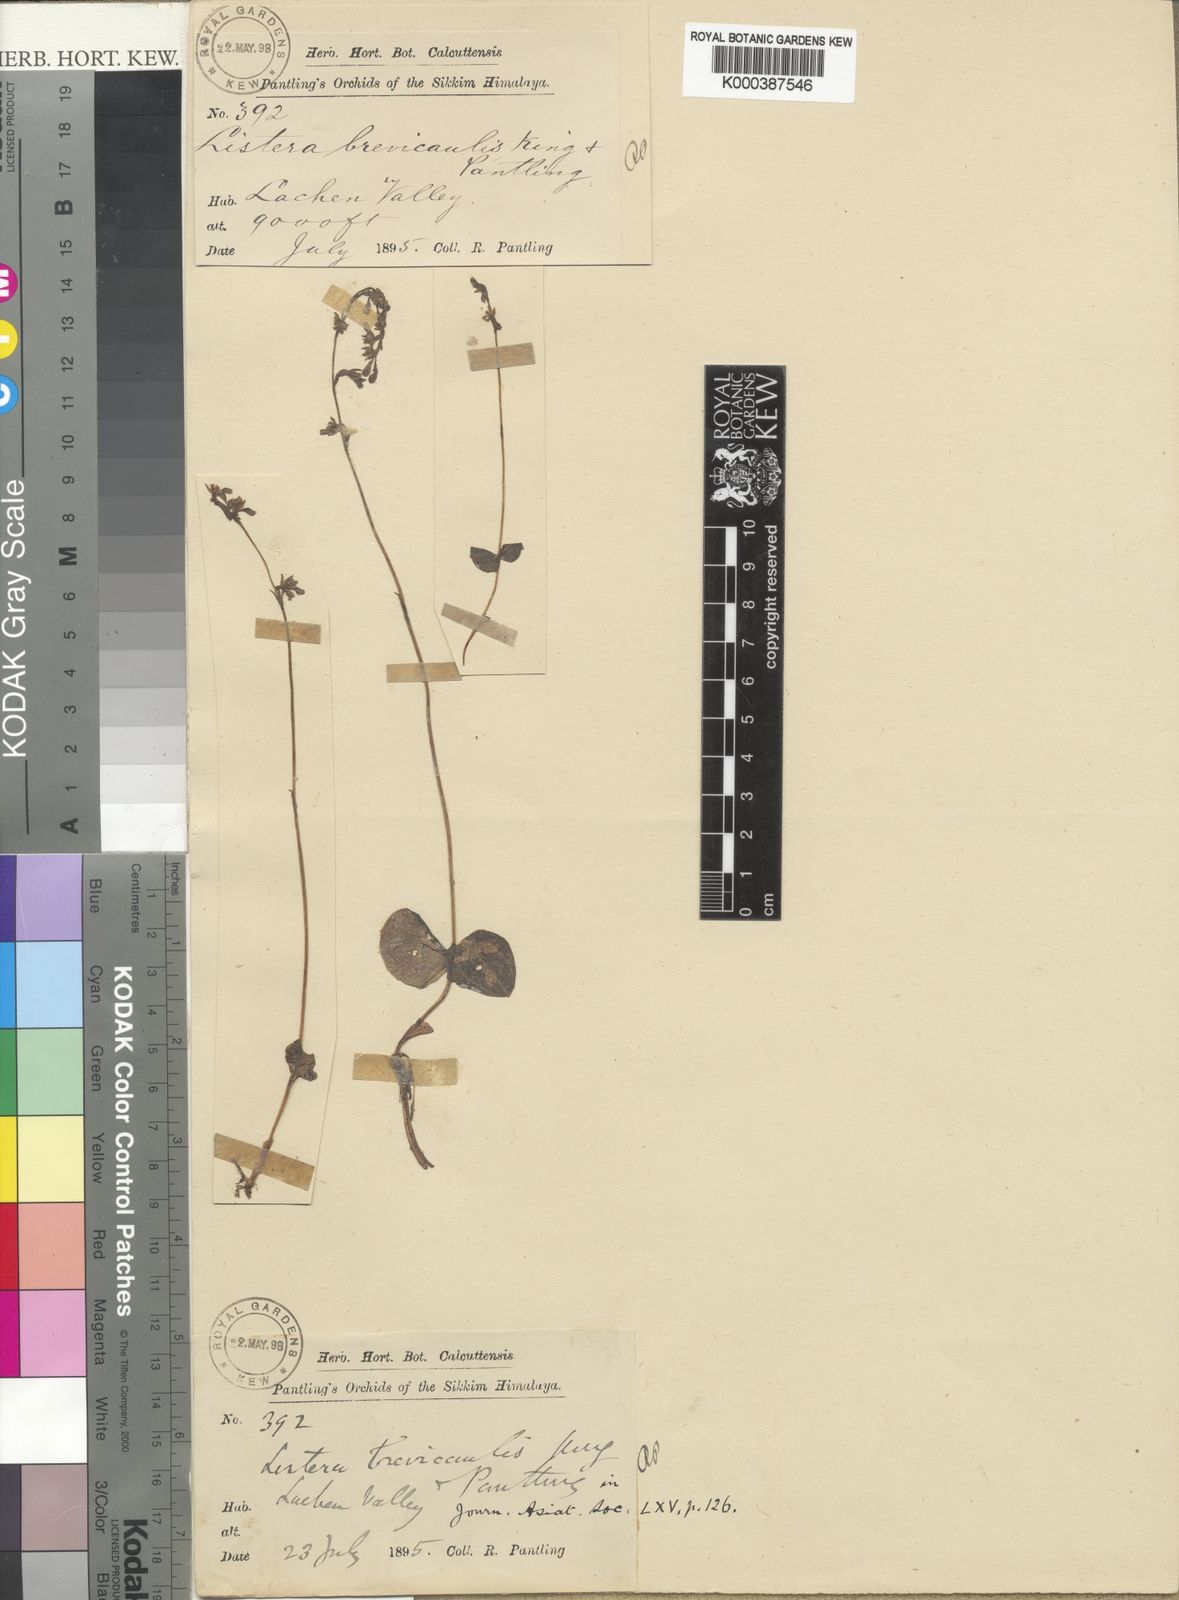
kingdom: Plantae
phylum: Tracheophyta
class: Liliopsida
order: Asparagales
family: Orchidaceae
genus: Neottia
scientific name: Neottia brevicaulis
